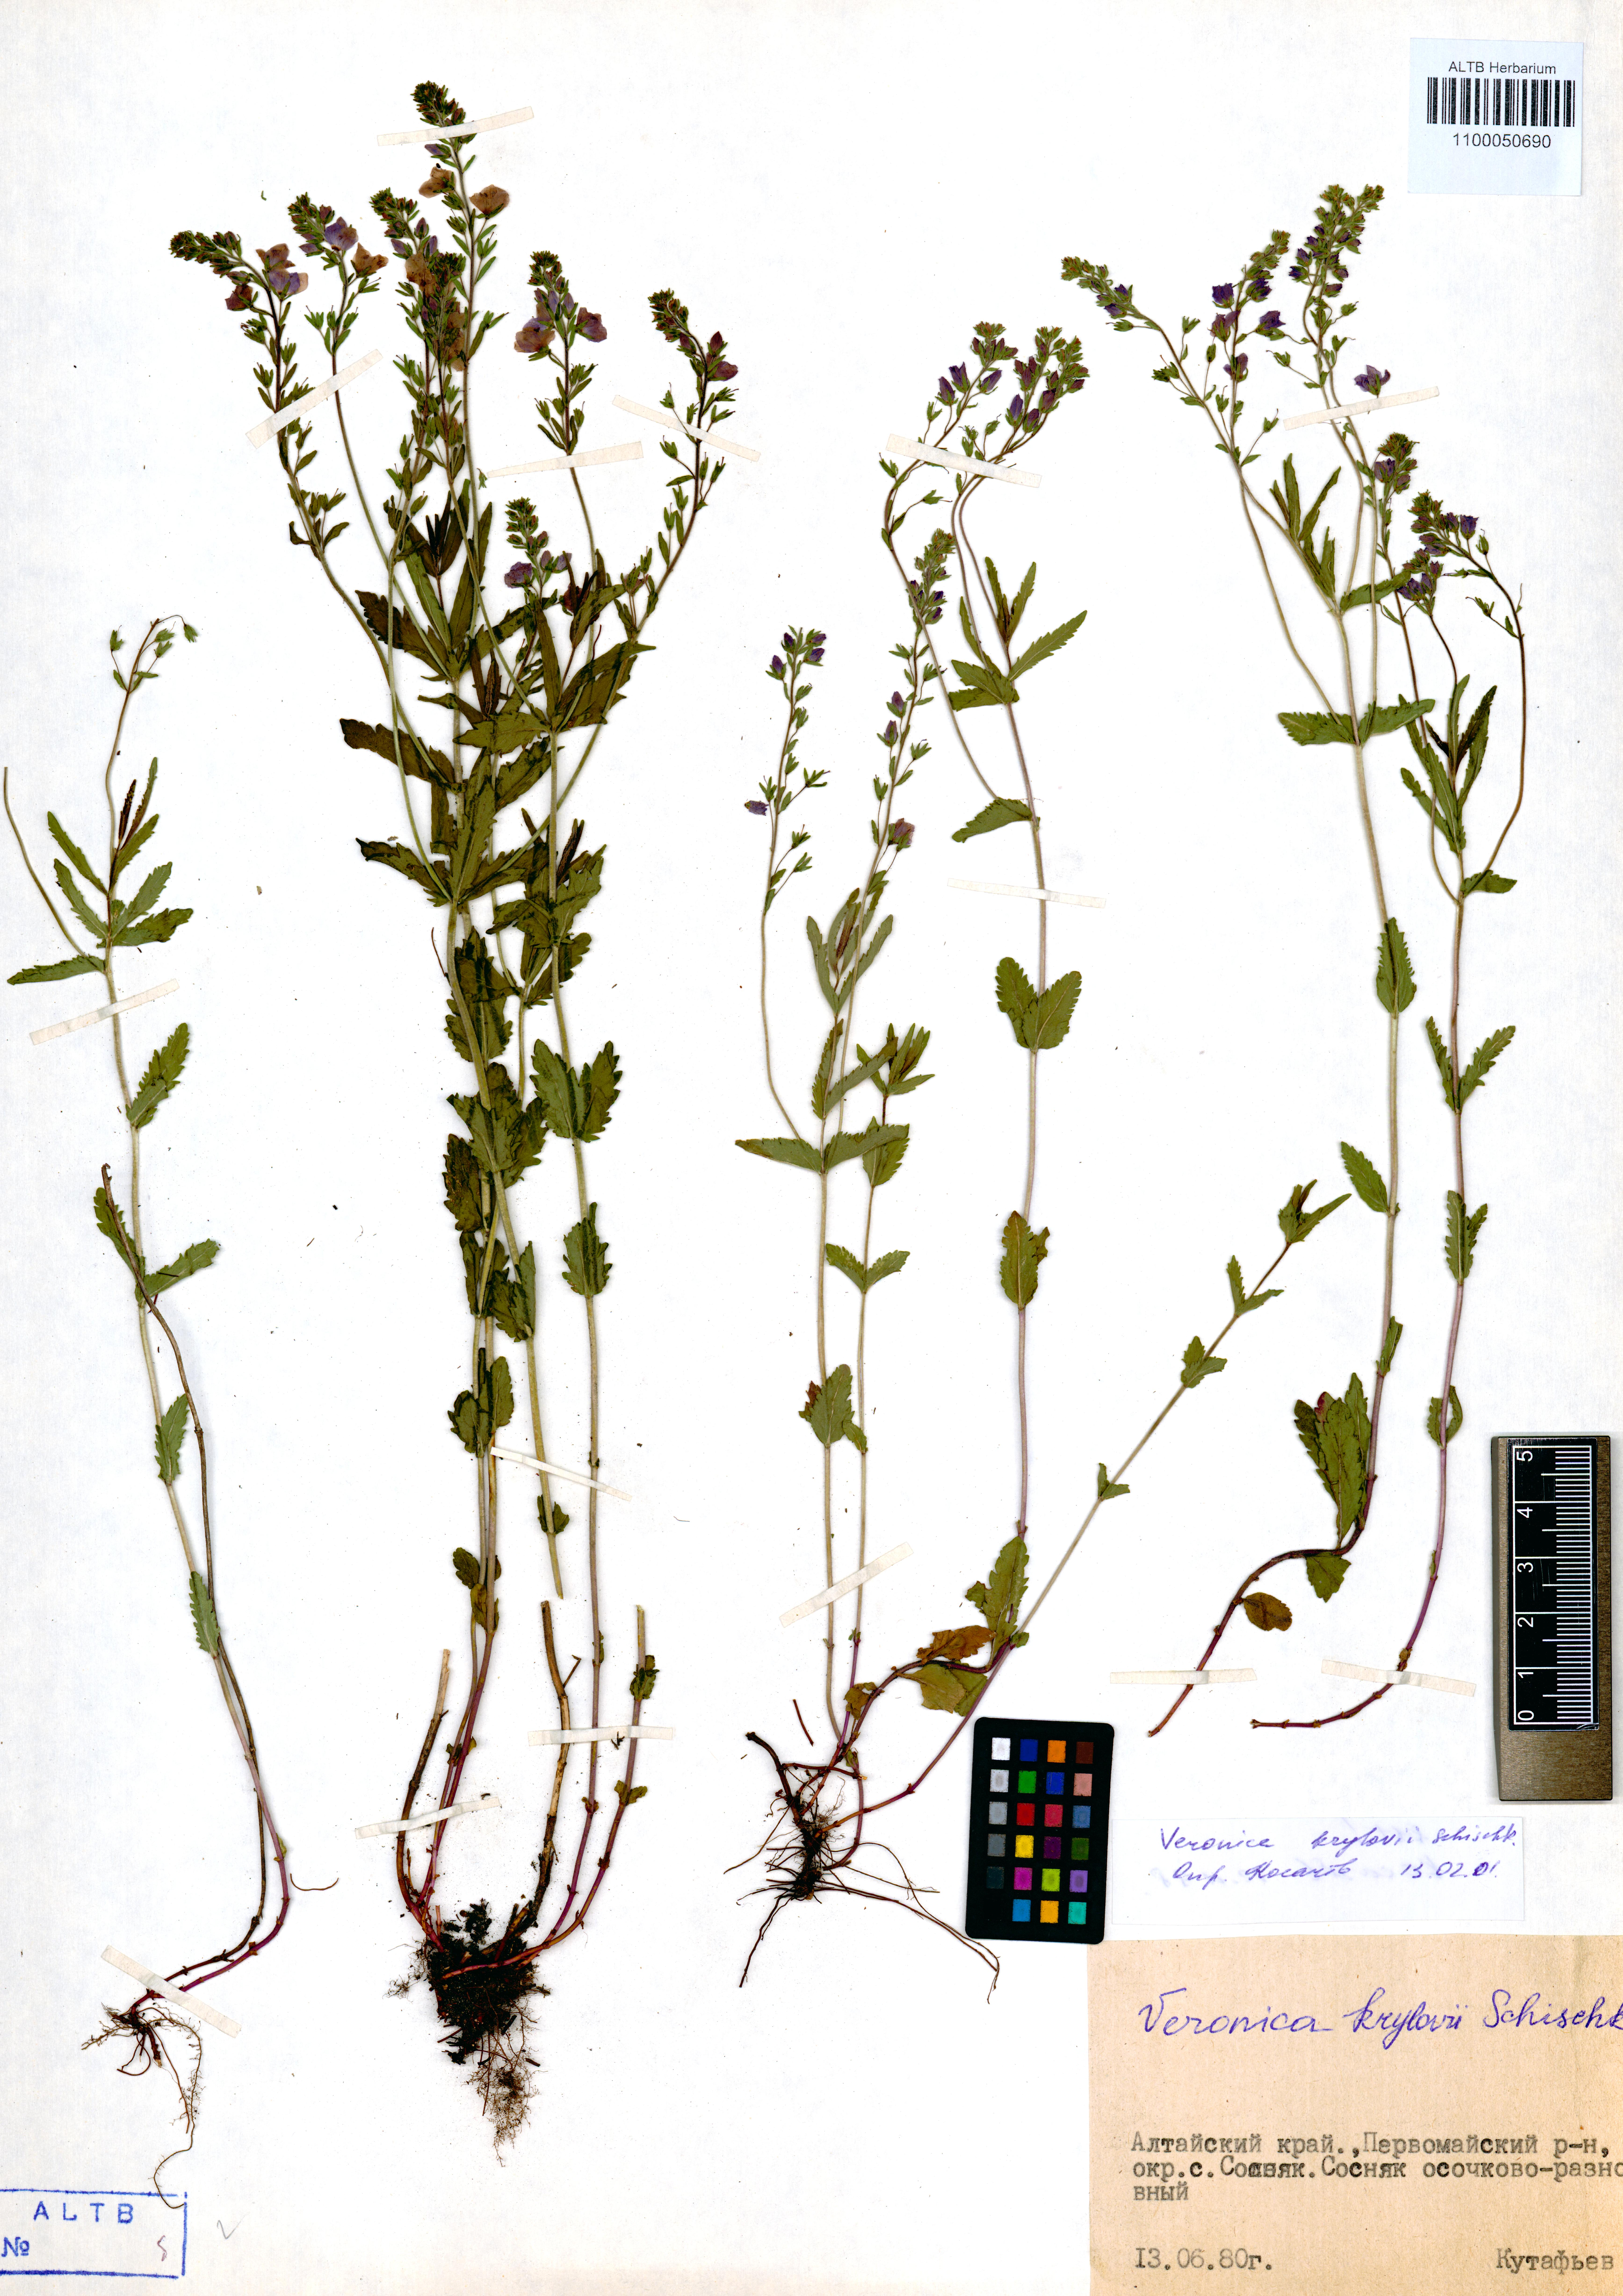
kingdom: Plantae
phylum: Tracheophyta
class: Magnoliopsida
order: Lamiales
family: Plantaginaceae
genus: Veronica
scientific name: Veronica krylovii
